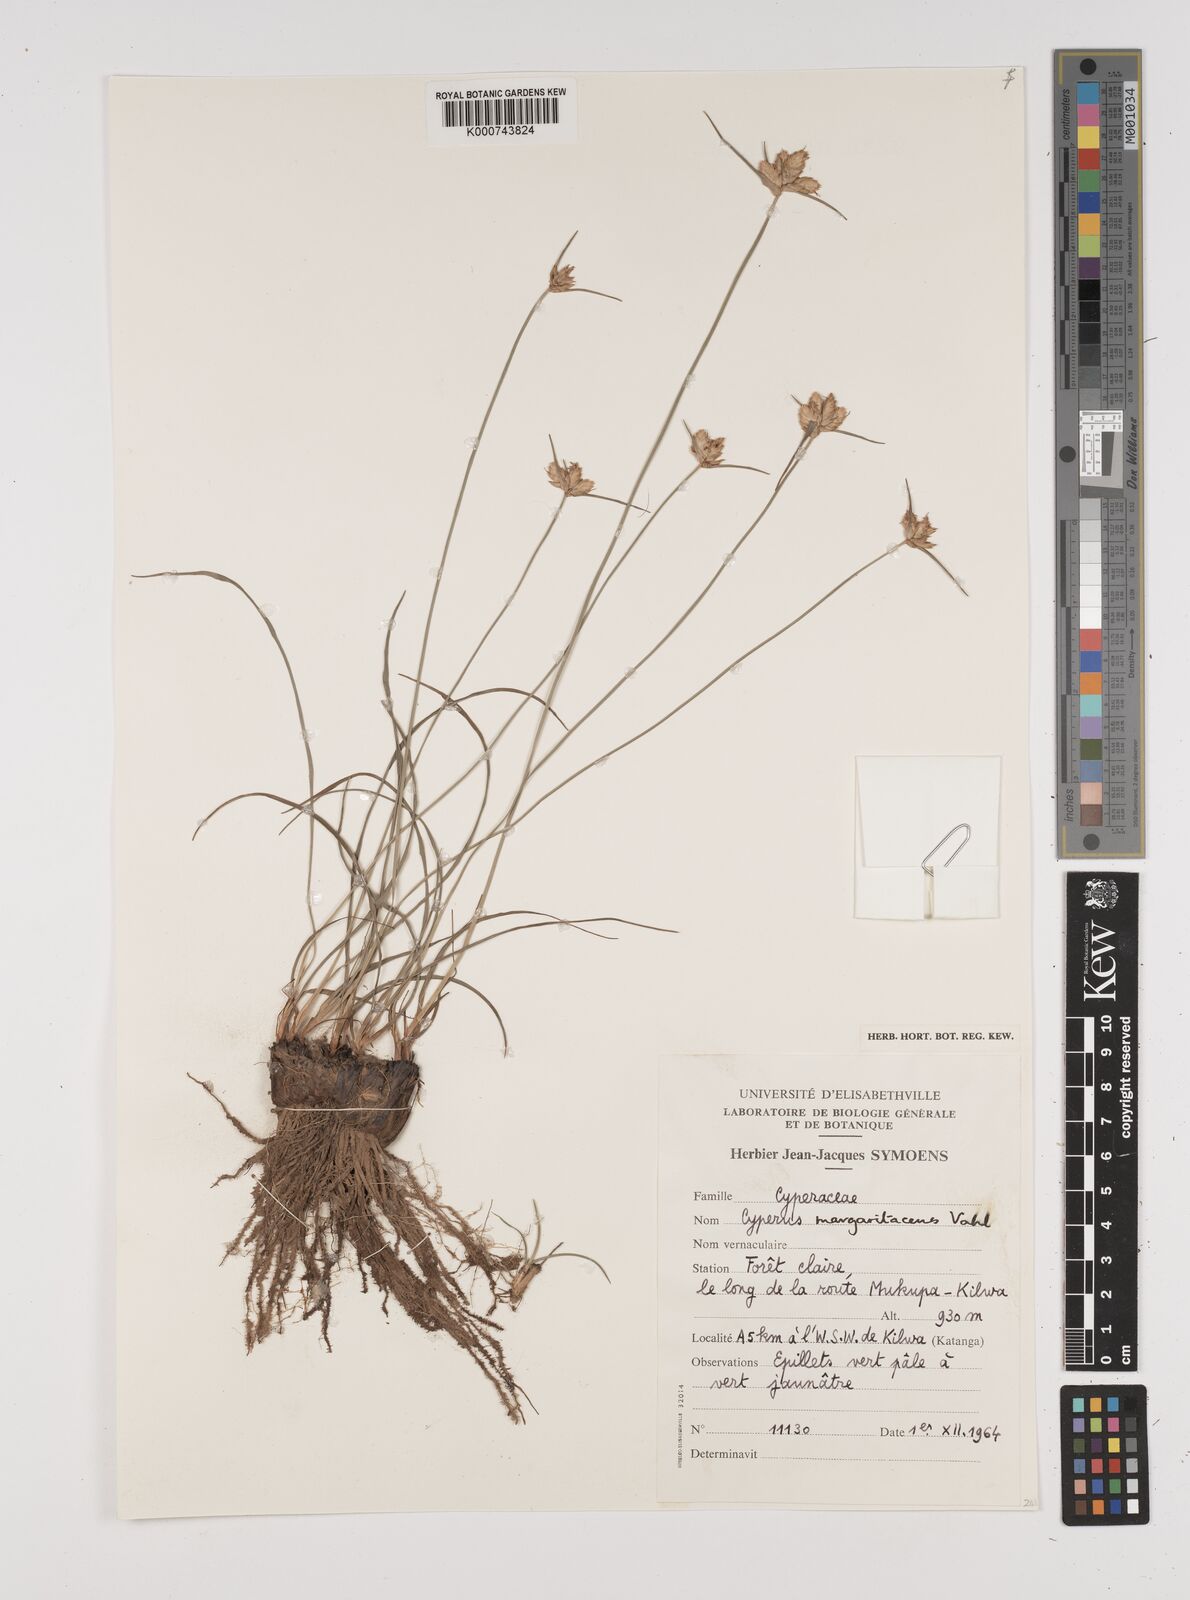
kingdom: Plantae
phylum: Tracheophyta
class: Liliopsida
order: Poales
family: Cyperaceae
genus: Cyperus
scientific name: Cyperus margaritaceus
